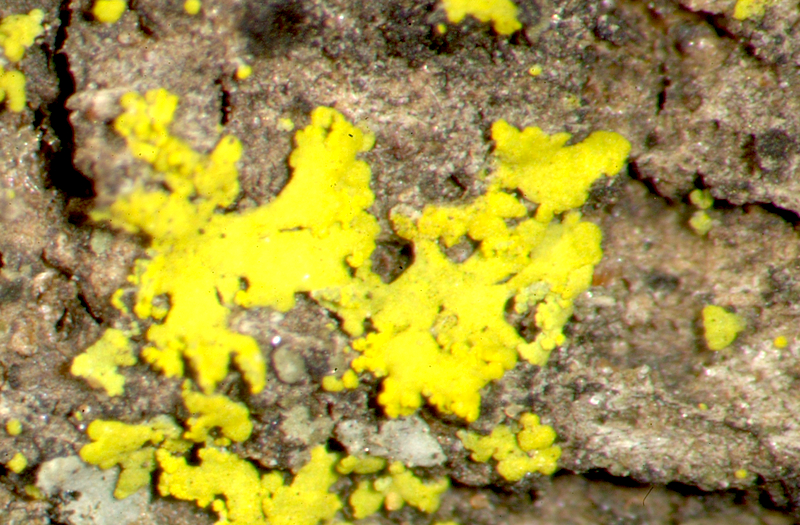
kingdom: Fungi
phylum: Ascomycota
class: Candelariomycetes
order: Candelariales
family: Candelariaceae
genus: Candelaria
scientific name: Candelaria concolor
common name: Candleflame lichen
